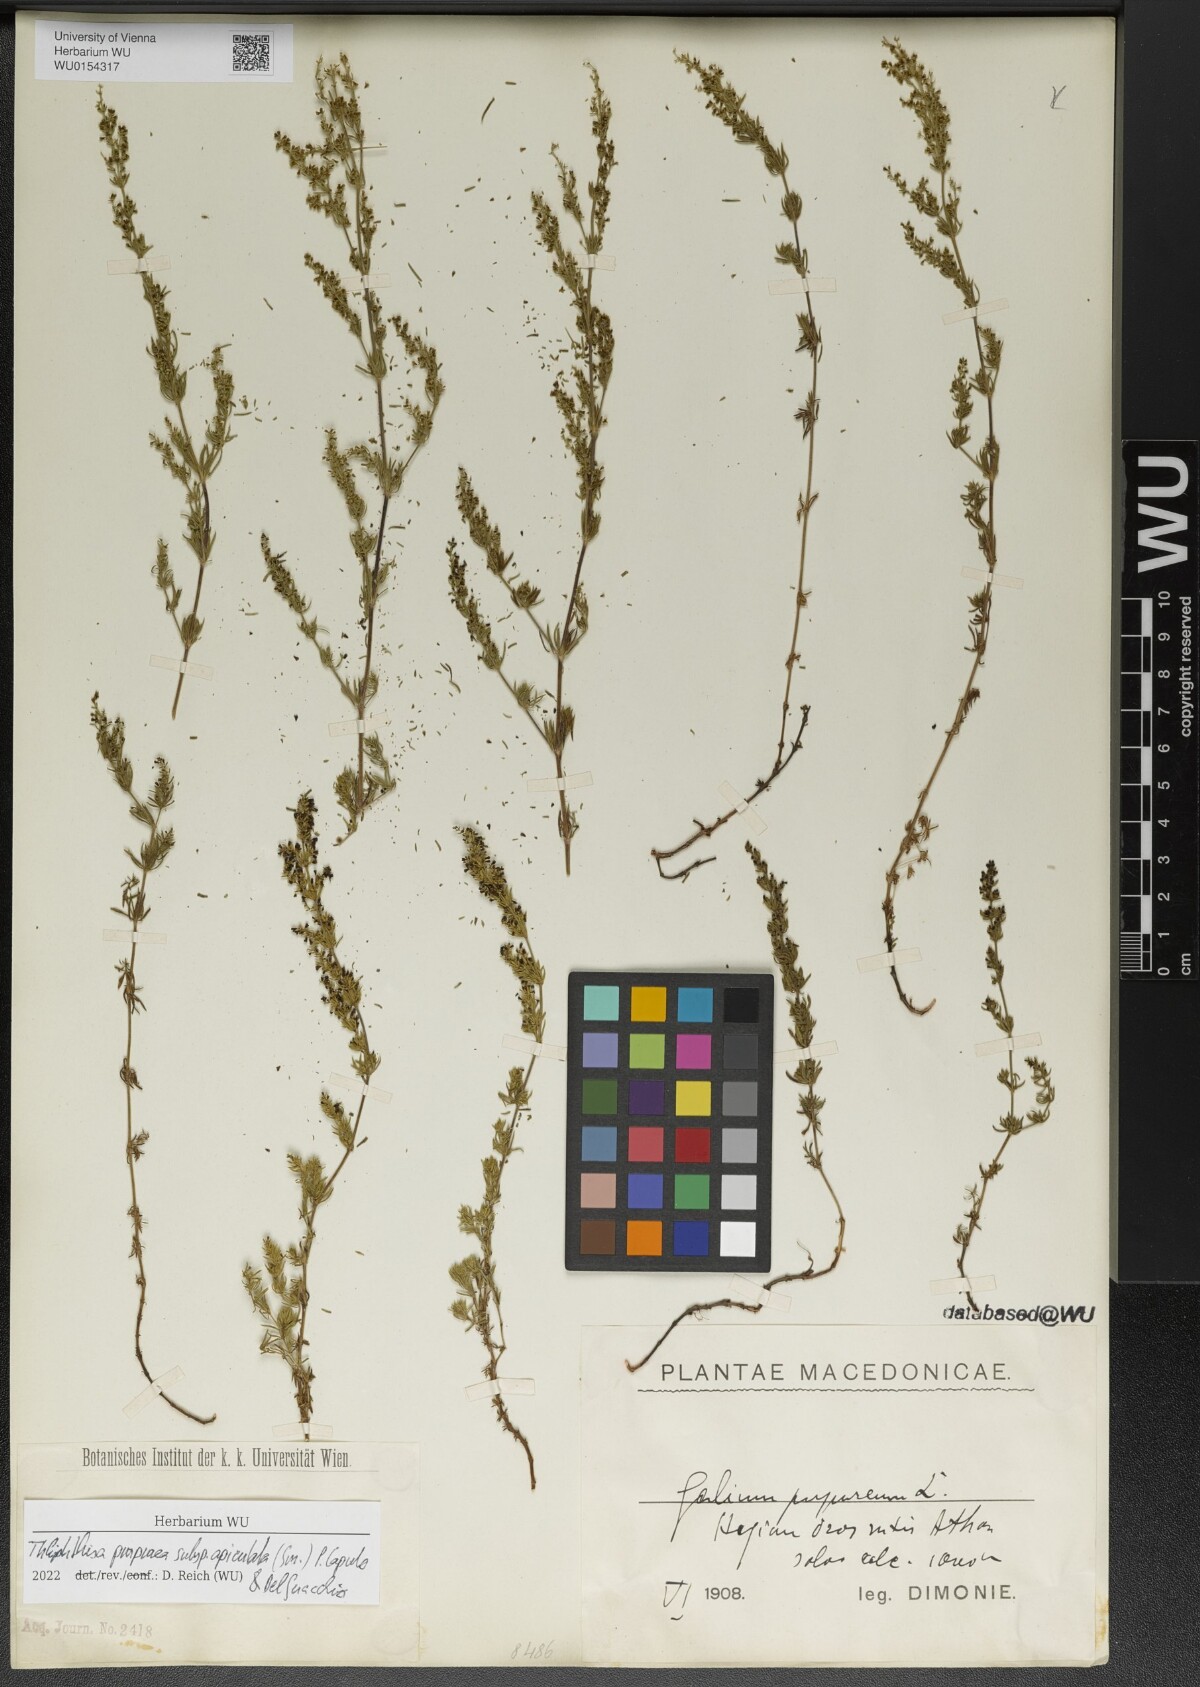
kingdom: Plantae
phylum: Tracheophyta
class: Magnoliopsida
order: Gentianales
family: Rubiaceae
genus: Thliphthisa
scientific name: Thliphthisa purpurea
